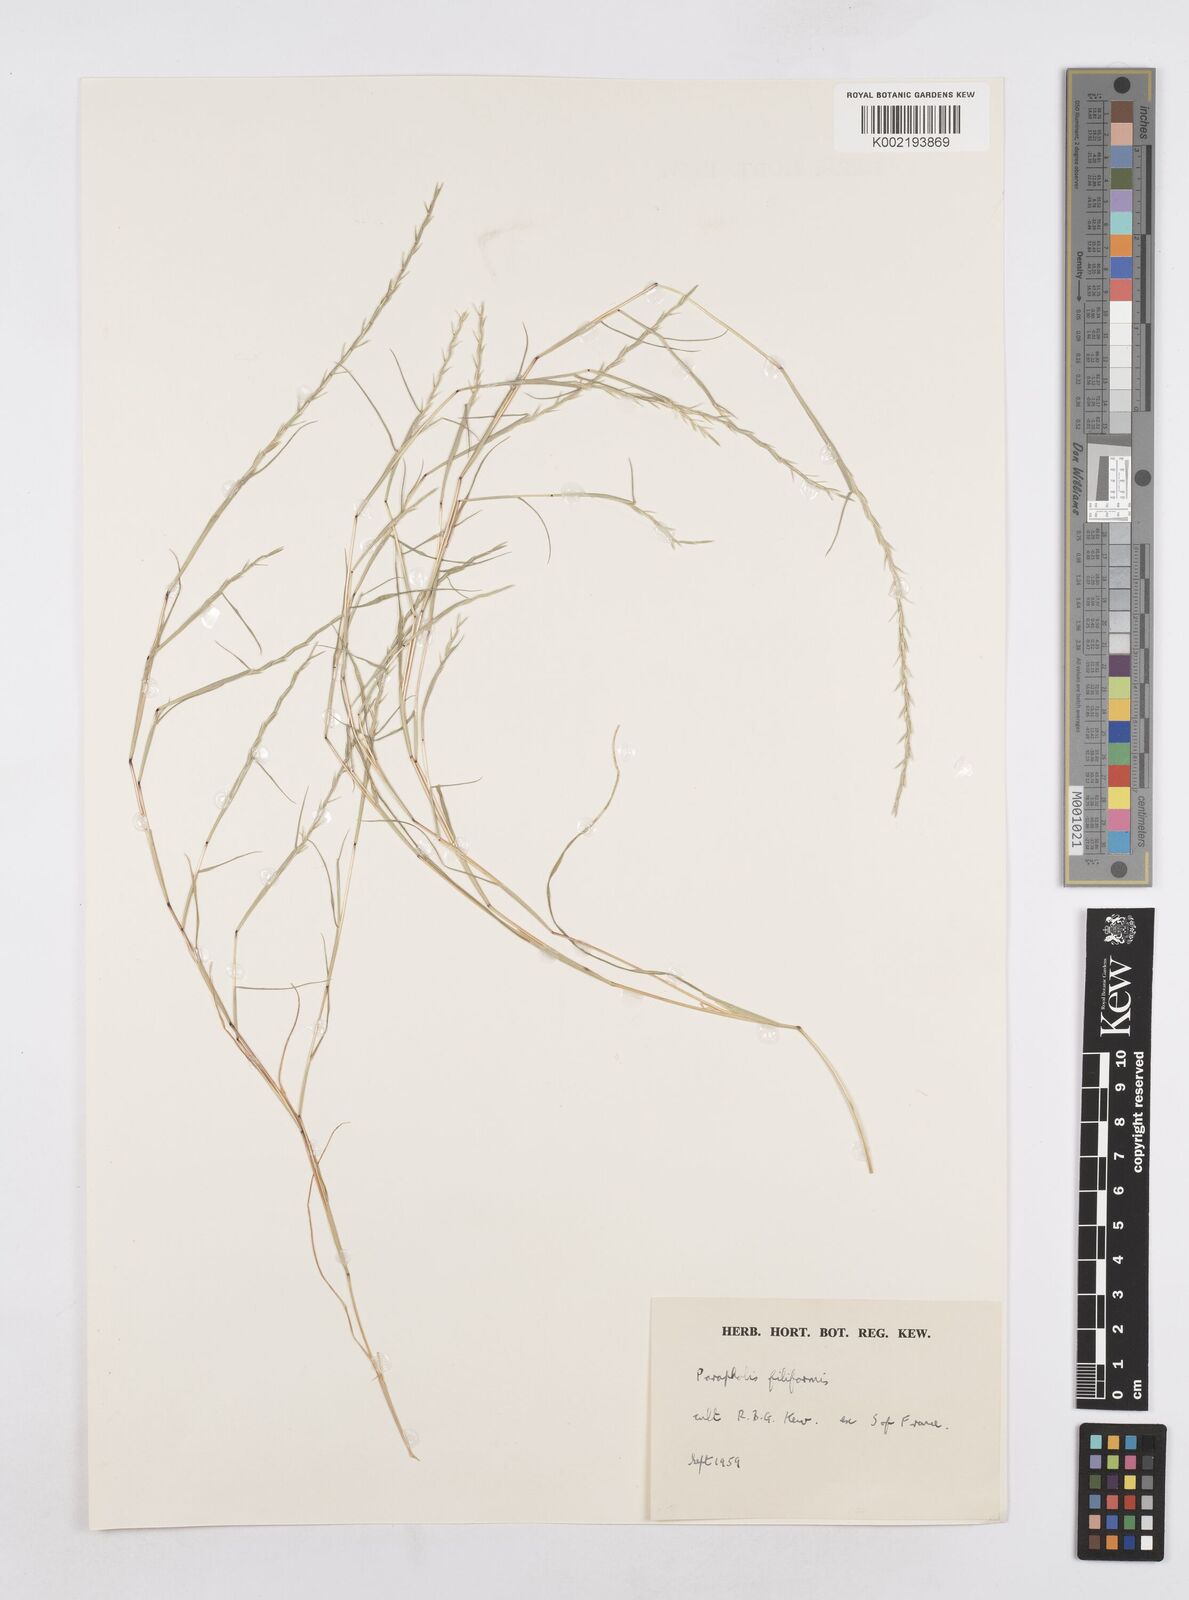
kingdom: Plantae
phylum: Tracheophyta
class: Liliopsida
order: Poales
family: Poaceae
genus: Parapholis
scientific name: Parapholis strigosa
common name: Hard-grass
